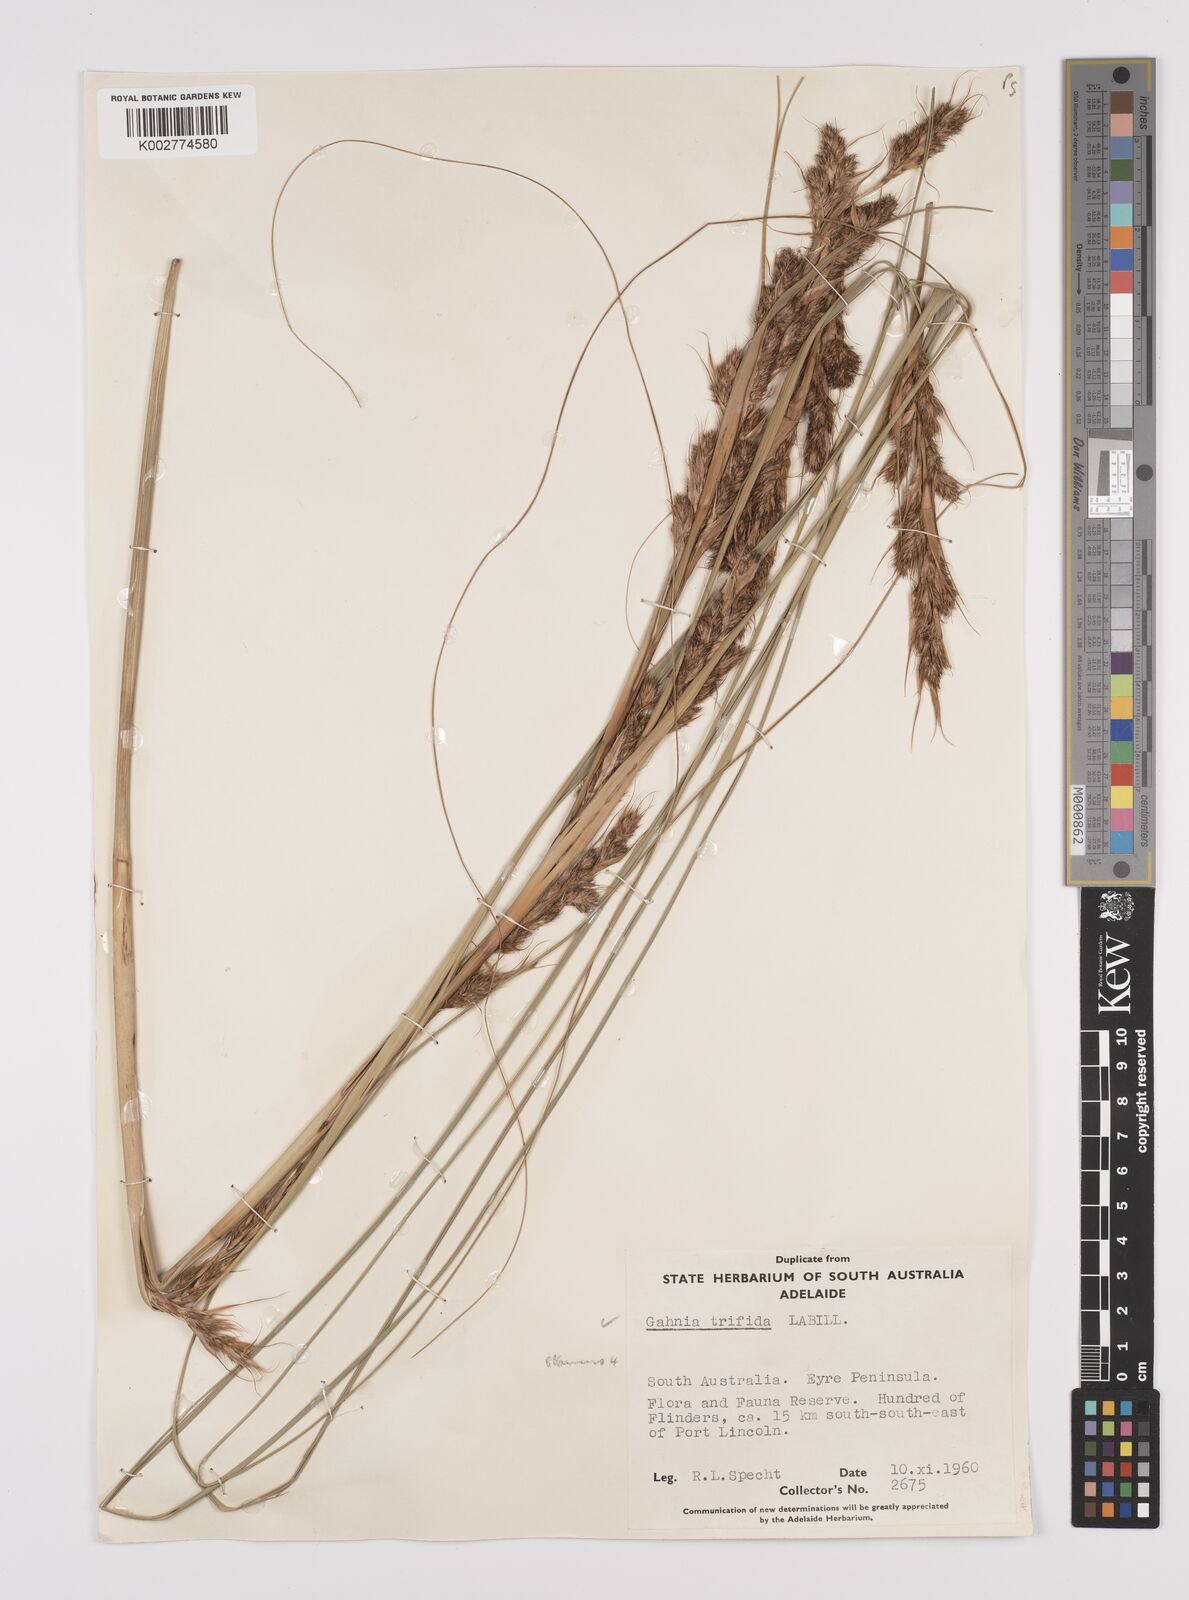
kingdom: Plantae
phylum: Tracheophyta
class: Liliopsida
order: Poales
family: Cyperaceae
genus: Gahnia
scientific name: Gahnia trifida
